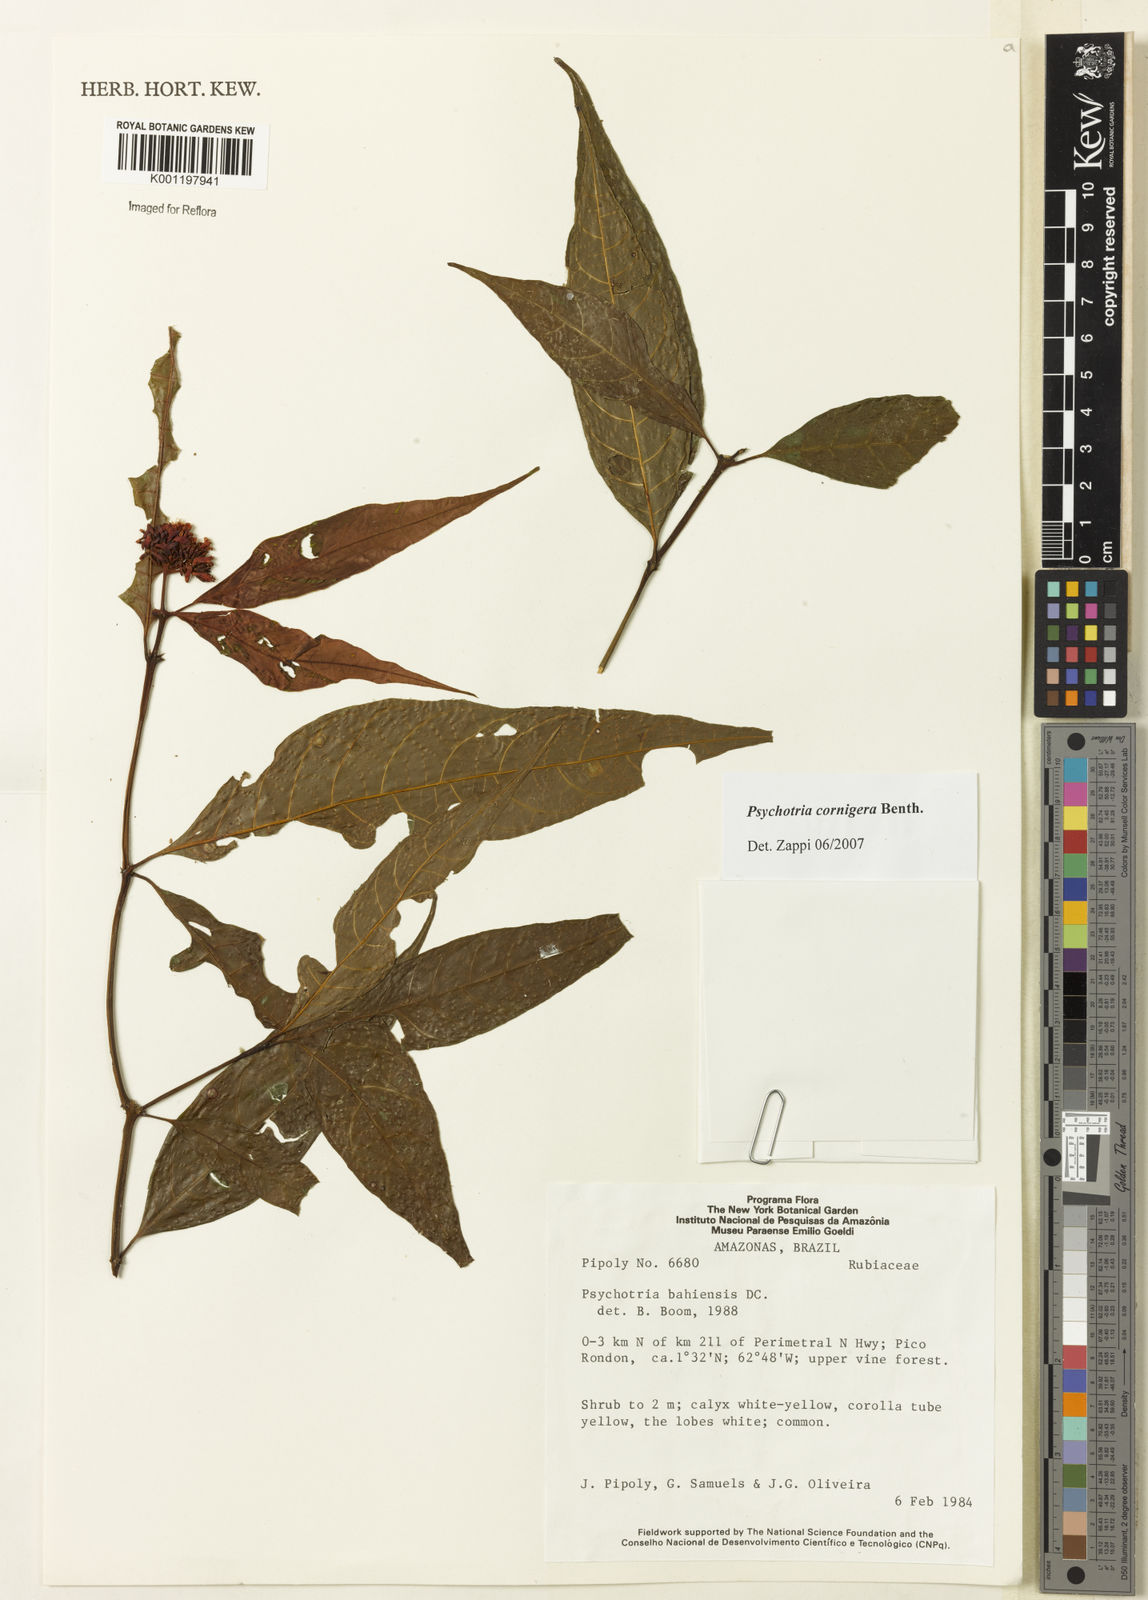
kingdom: Plantae
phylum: Tracheophyta
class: Magnoliopsida
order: Gentianales
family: Rubiaceae
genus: Psychotria
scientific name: Psychotria bahiensis
